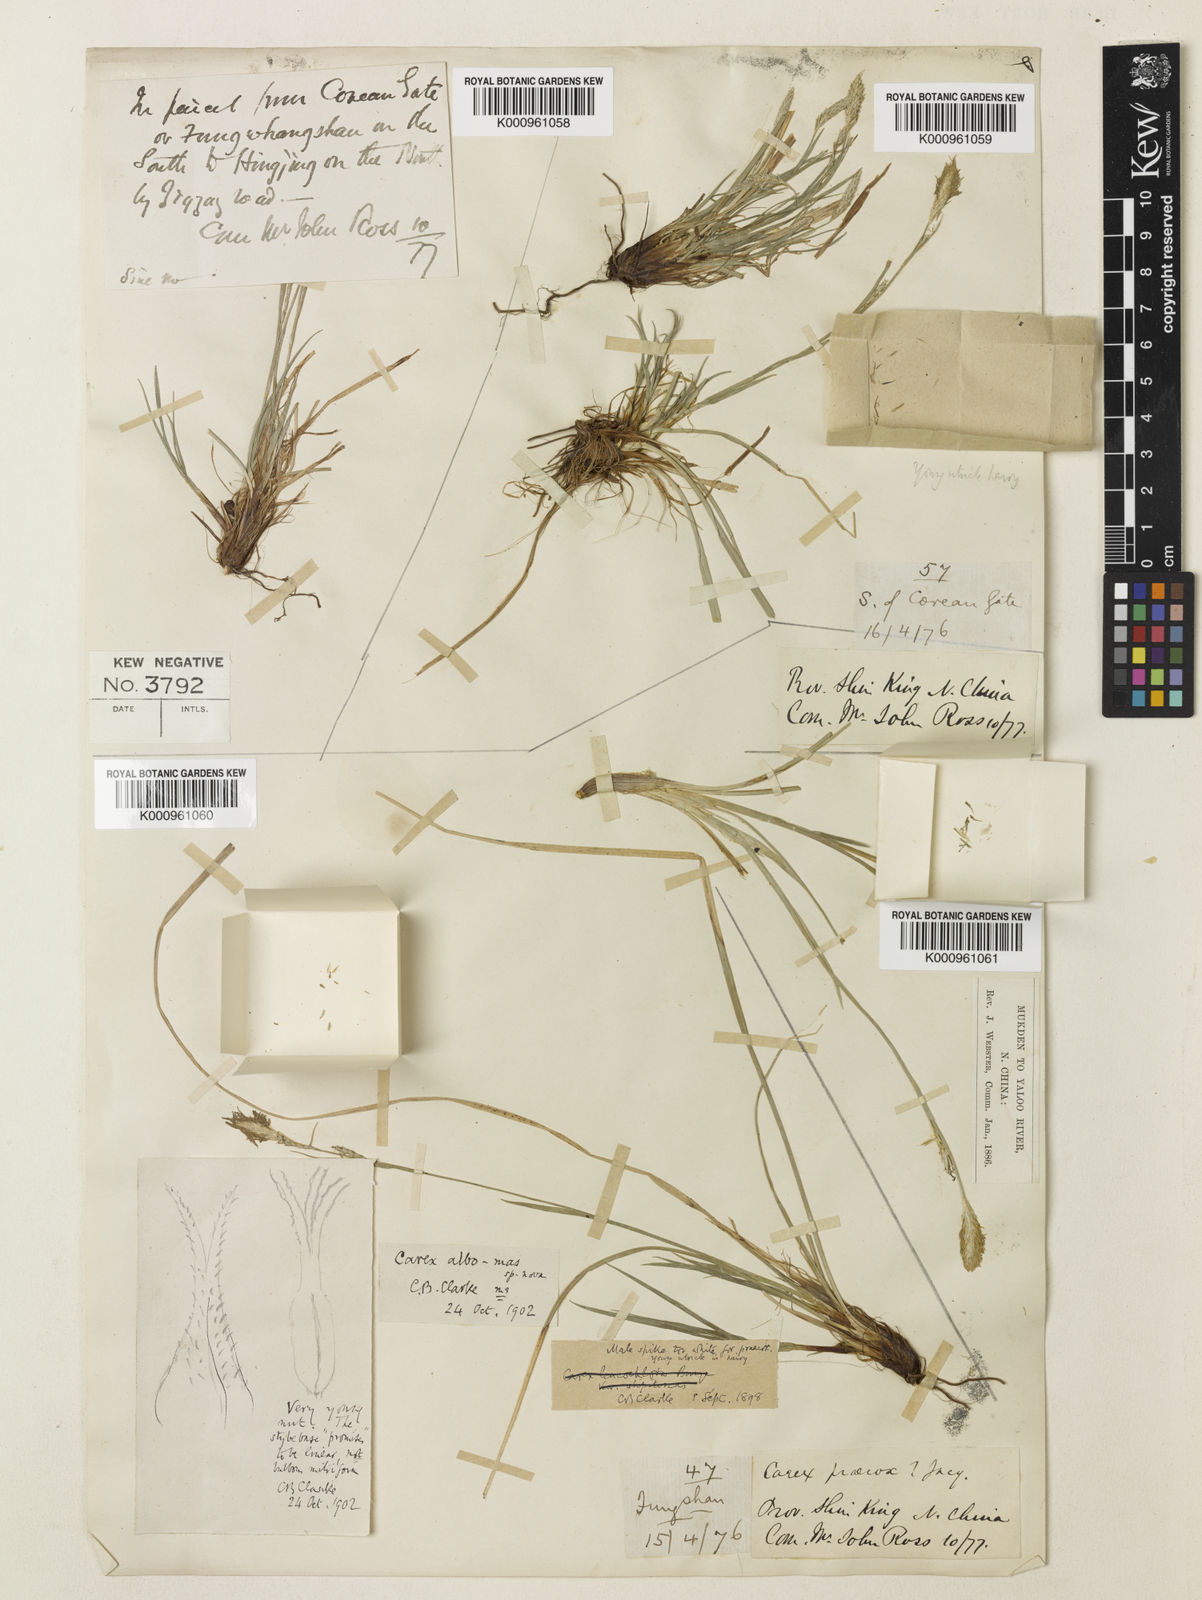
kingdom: Plantae
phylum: Tracheophyta
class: Liliopsida
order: Poales
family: Cyperaceae
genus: Carex
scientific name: Carex pisiformis
